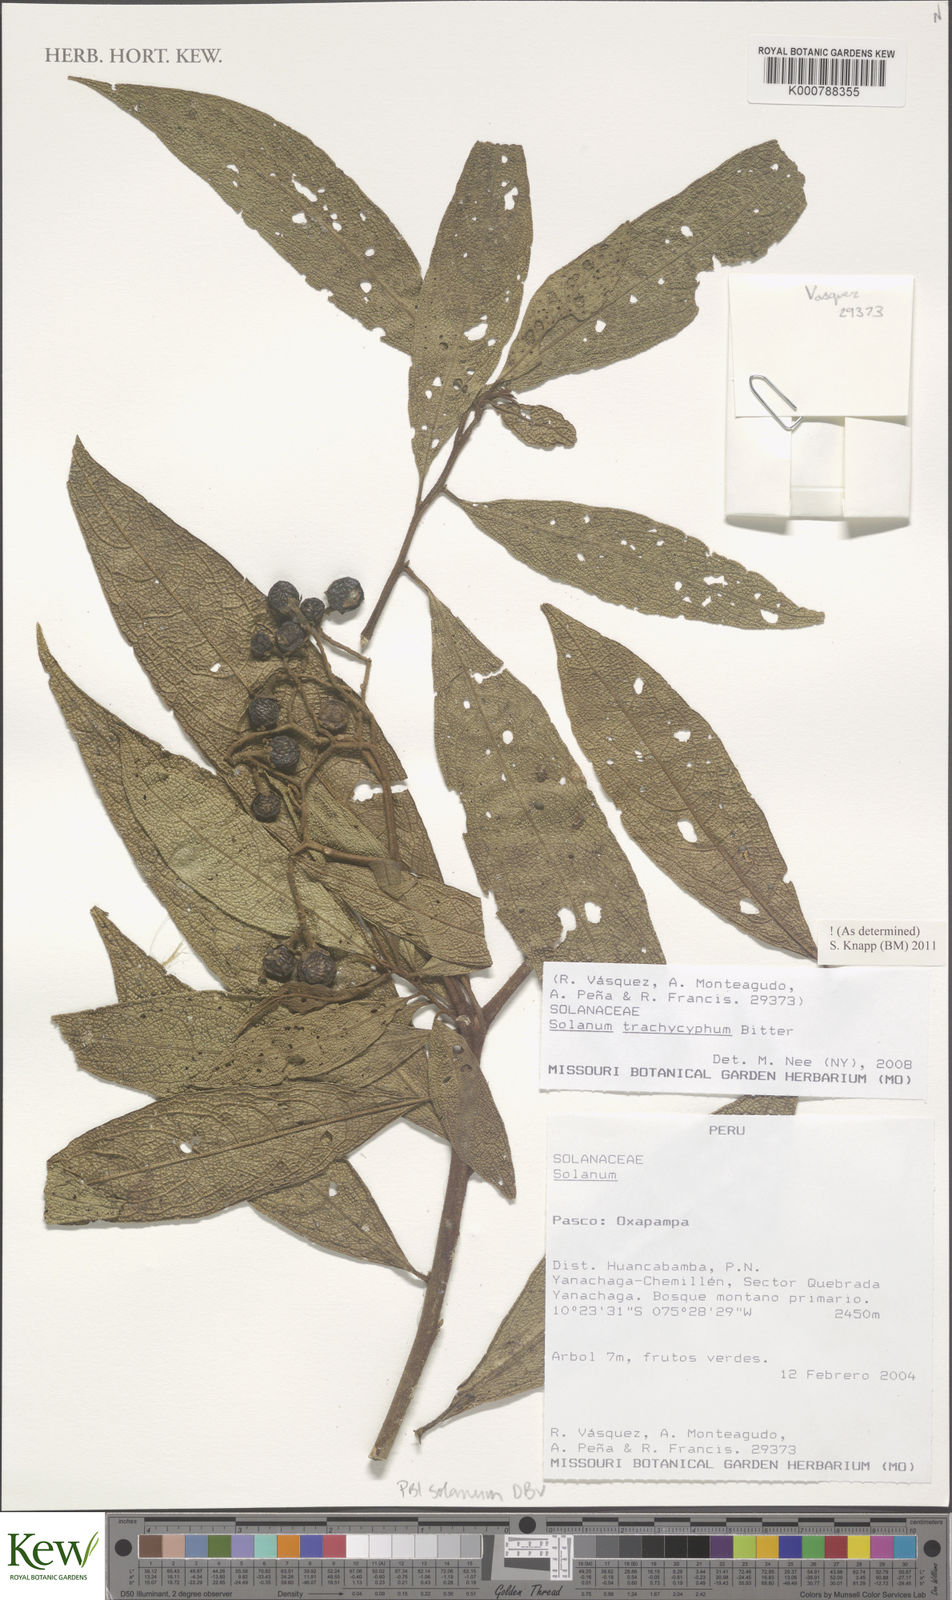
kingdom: Plantae
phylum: Tracheophyta
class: Magnoliopsida
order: Solanales
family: Solanaceae
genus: Solanum
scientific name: Solanum trachycyphum
